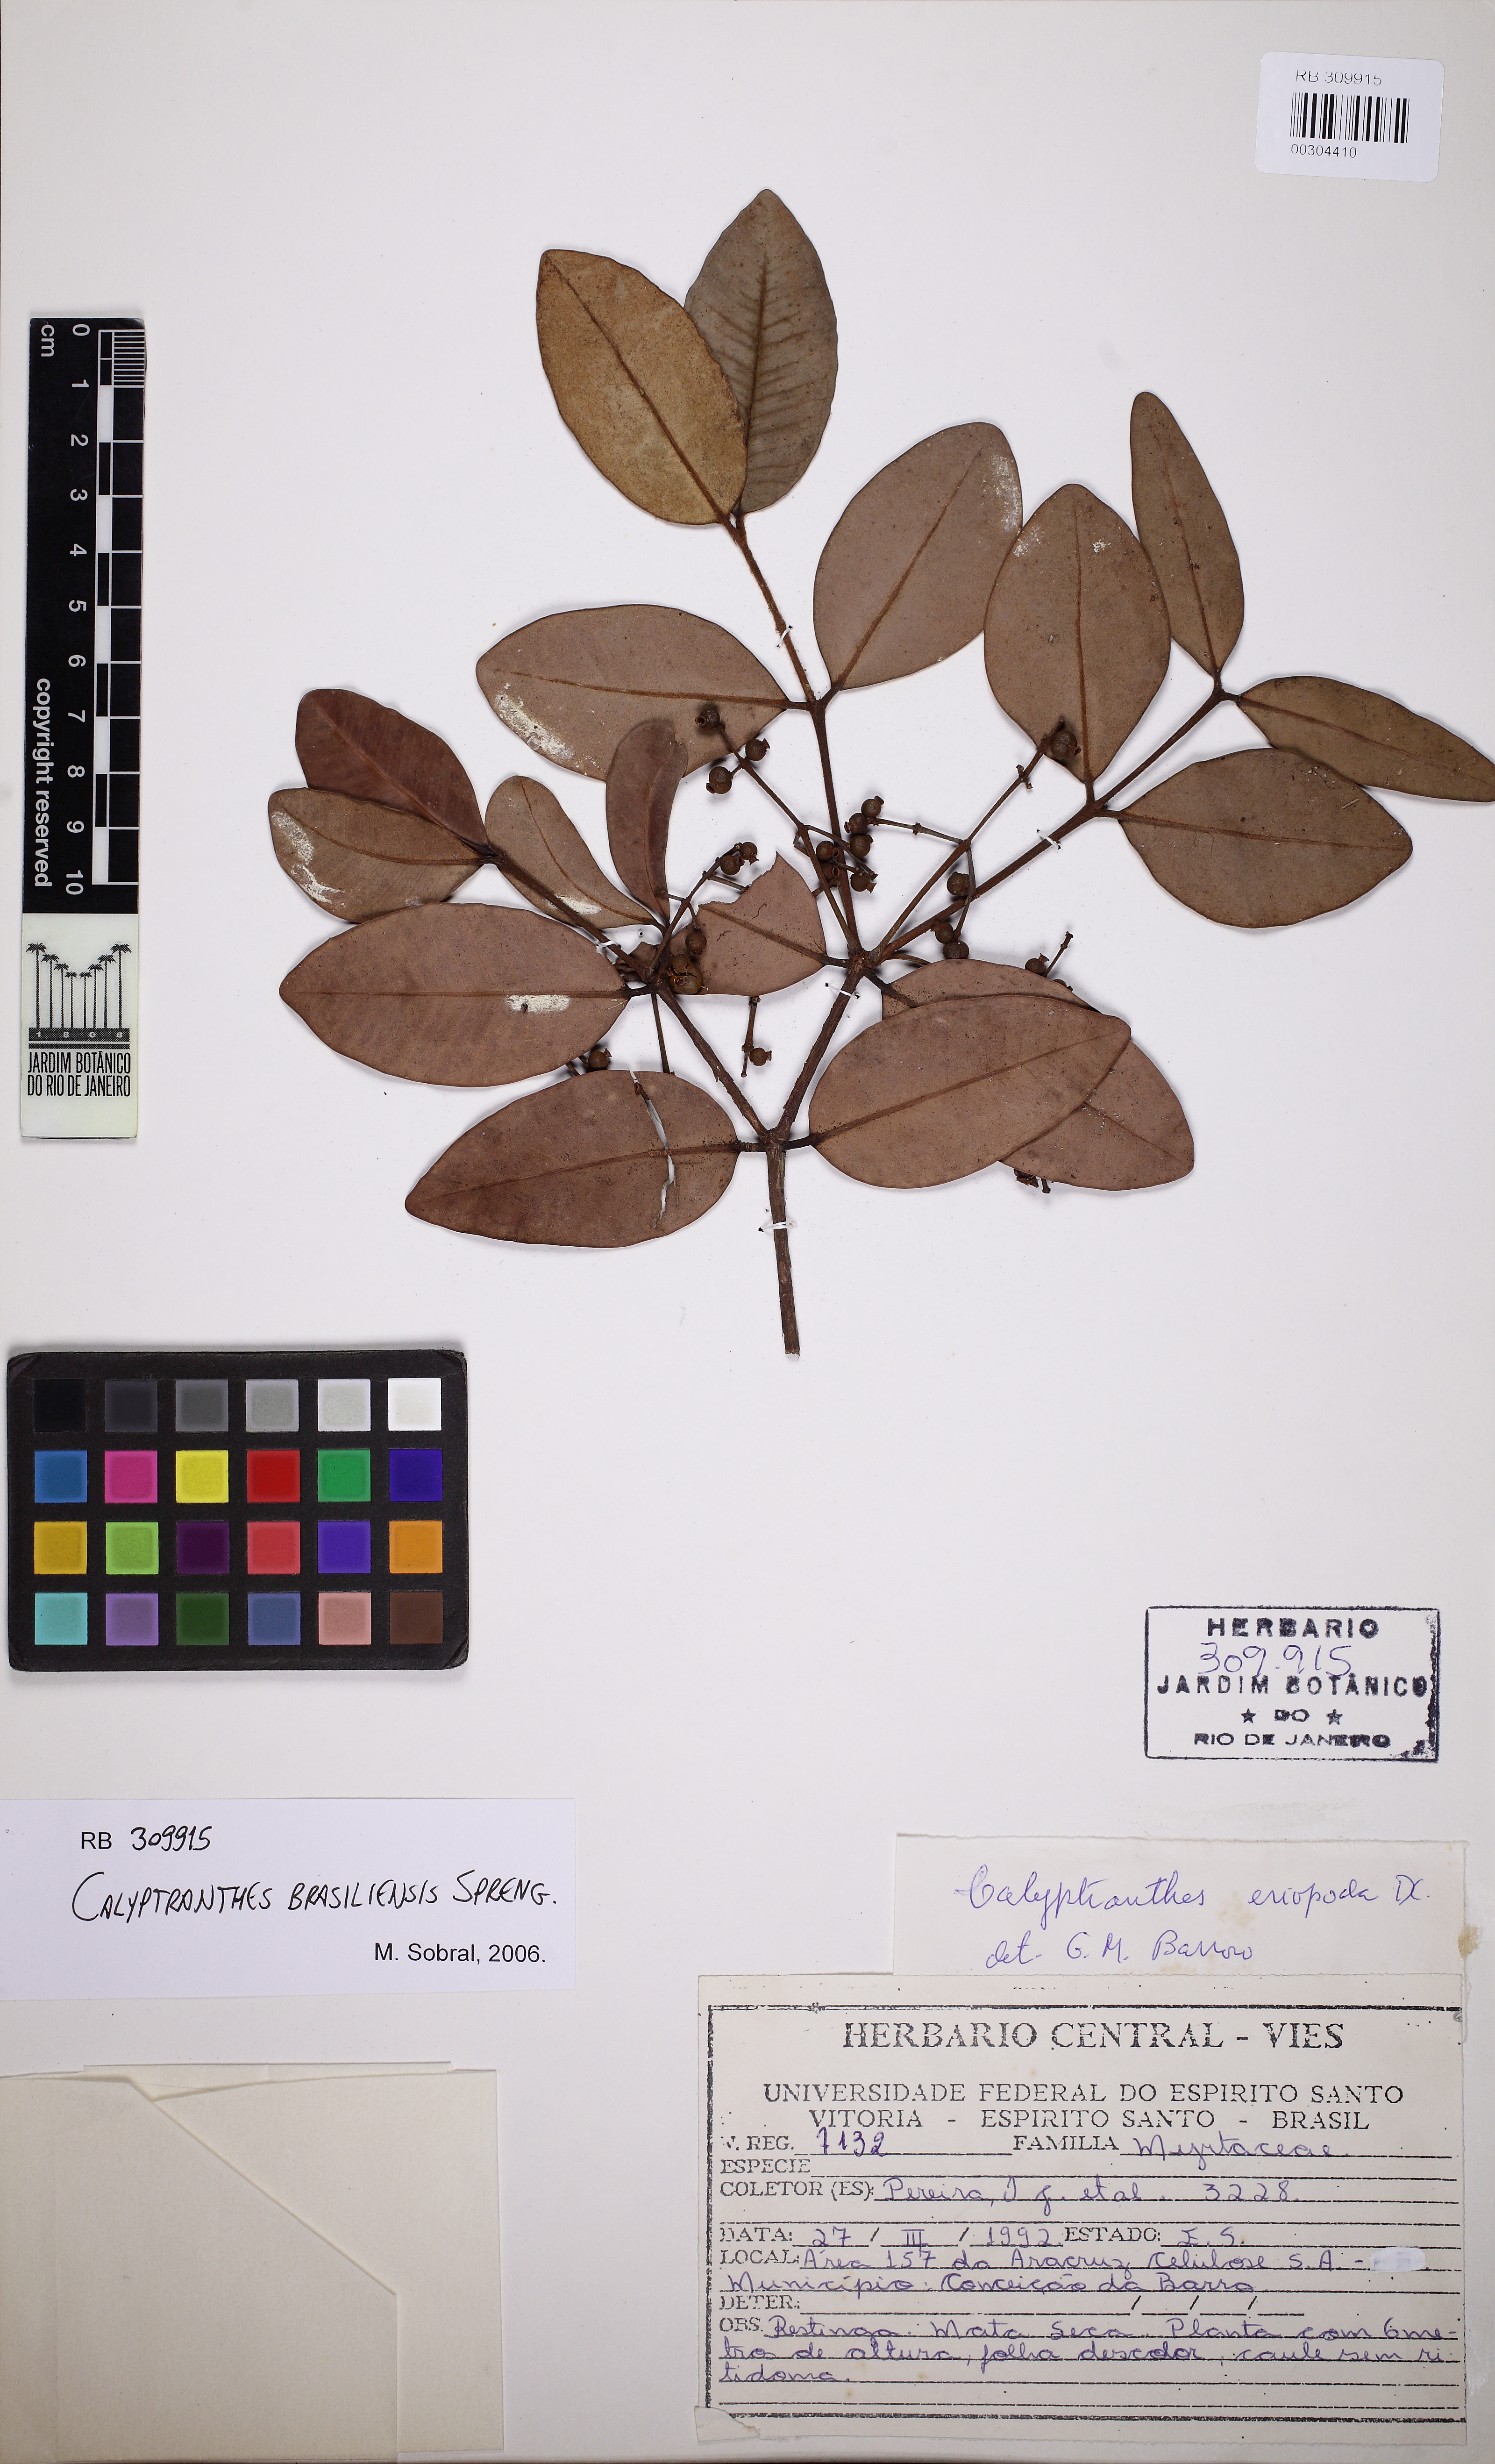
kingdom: Plantae
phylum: Tracheophyta
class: Magnoliopsida
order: Myrtales
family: Myrtaceae
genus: Myrcia
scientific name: Myrcia neobrasiliensis
